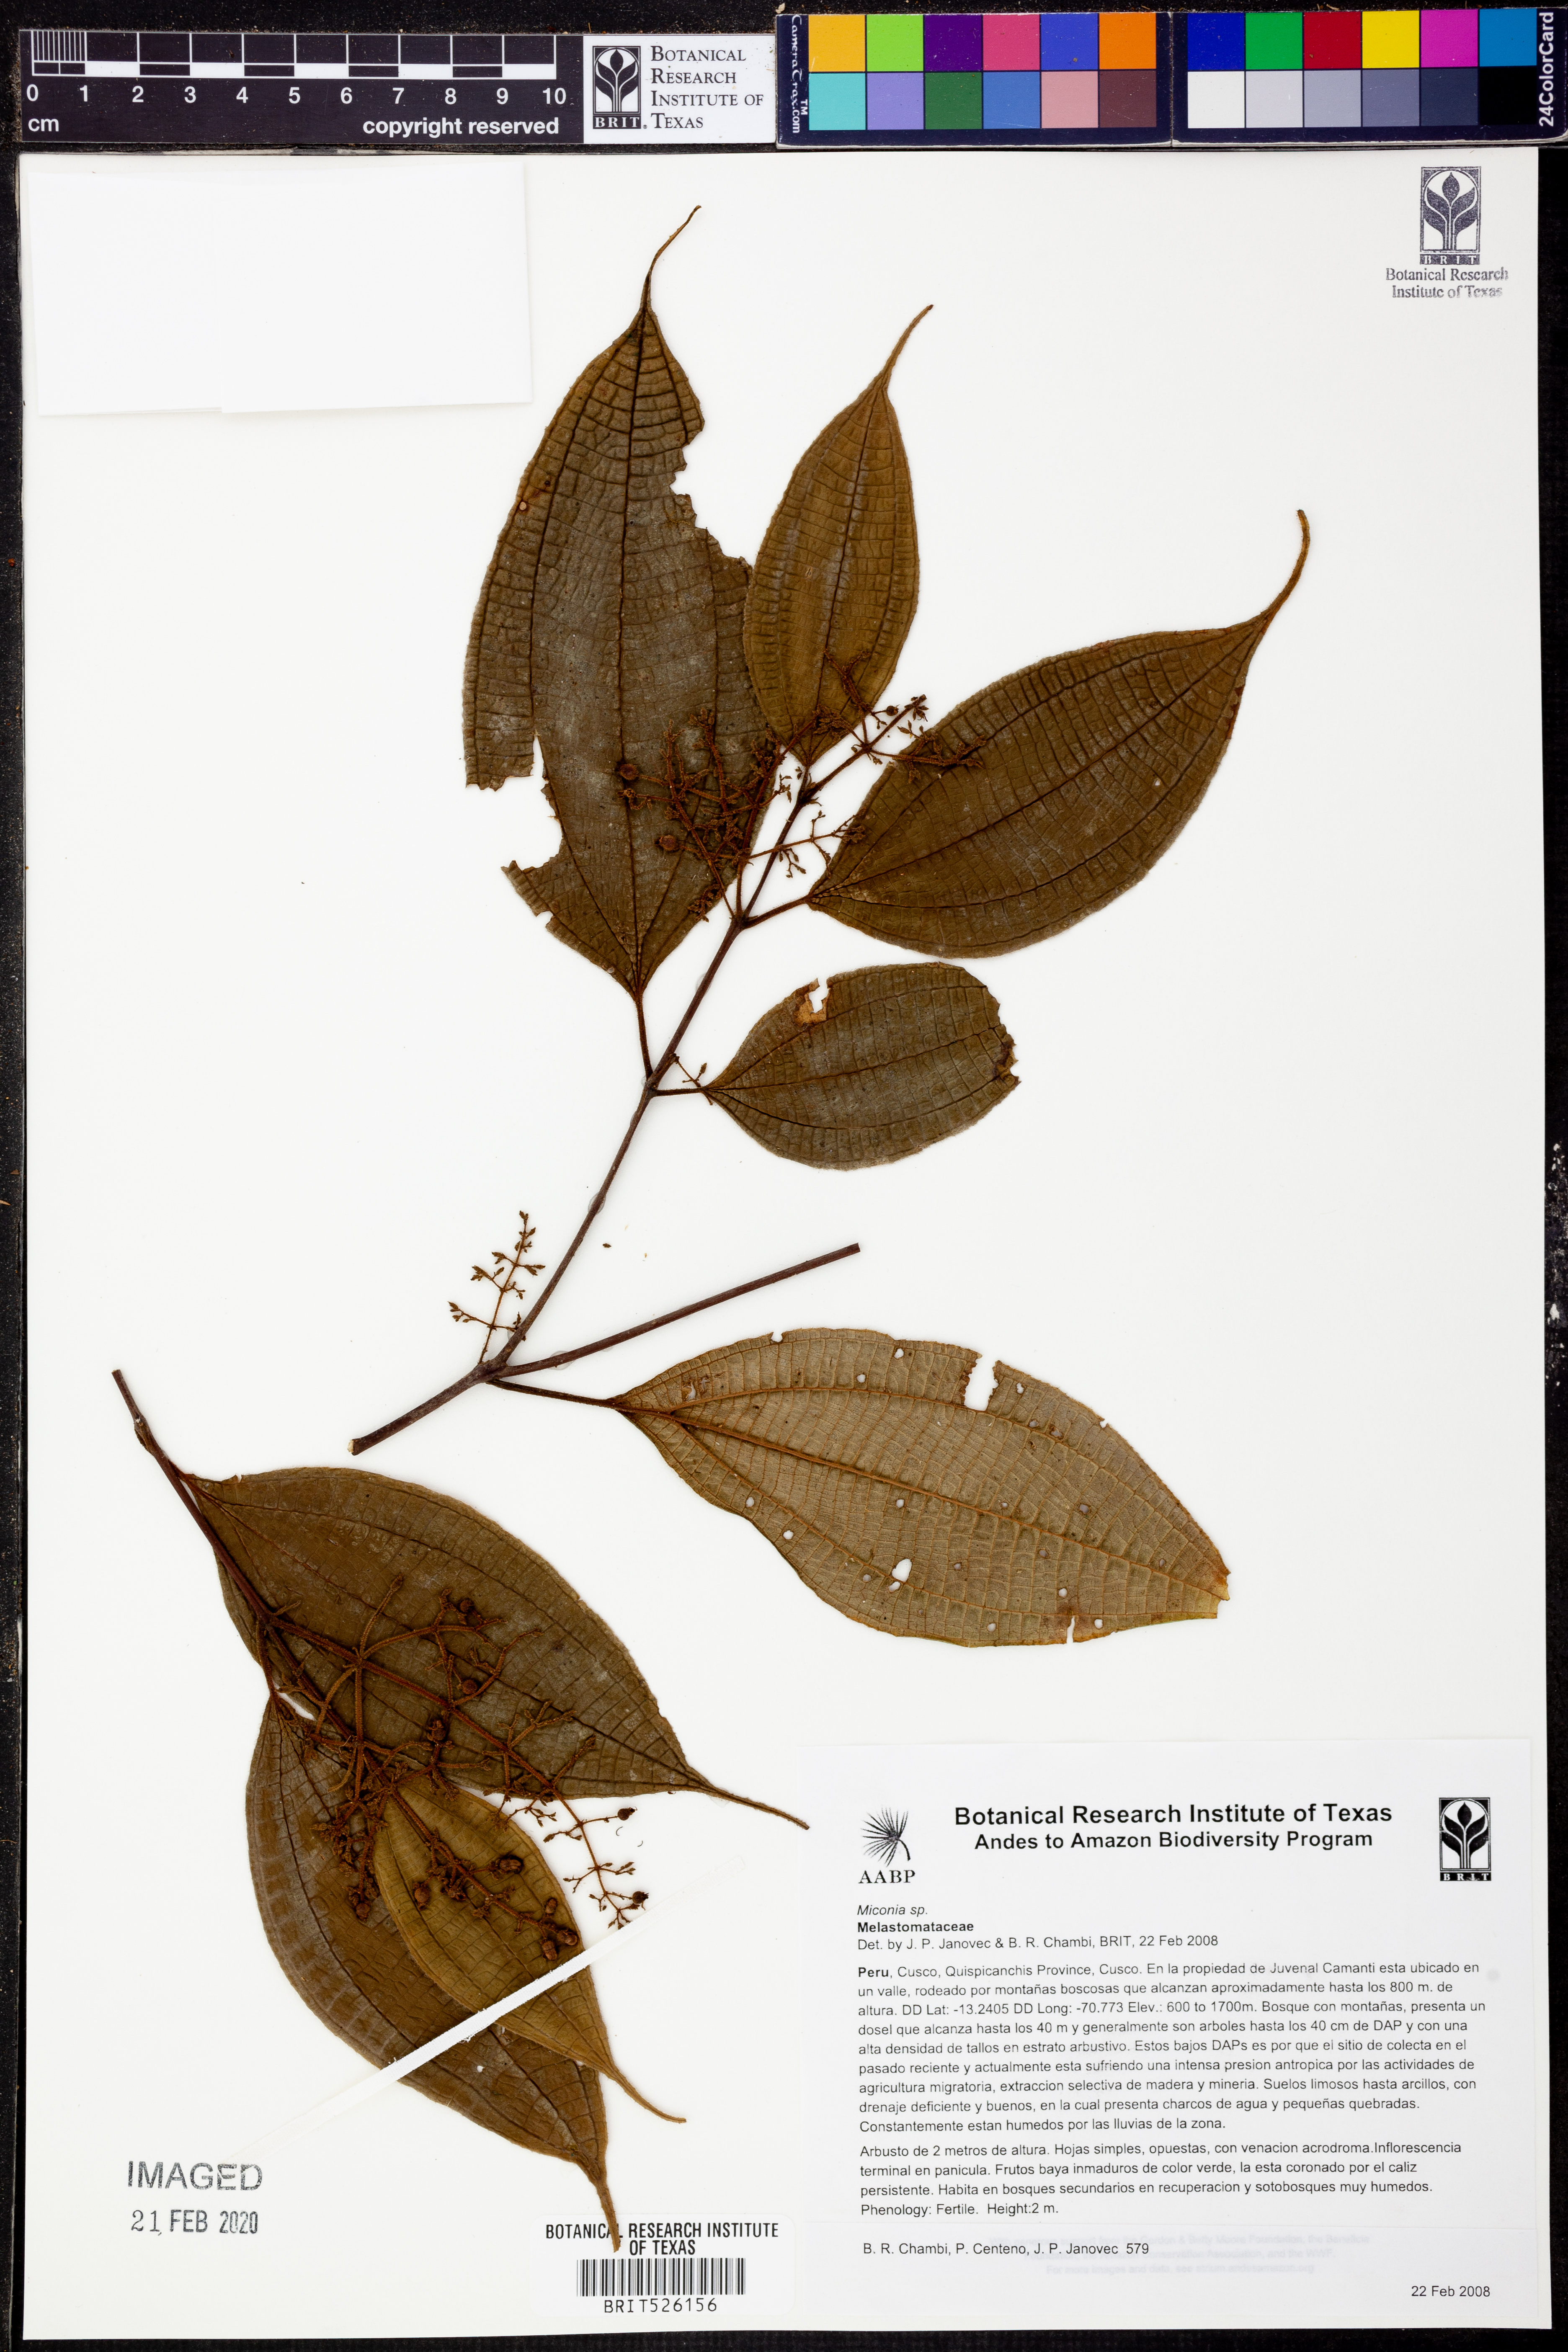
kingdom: Plantae
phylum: Tracheophyta
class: Magnoliopsida
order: Myrtales
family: Melastomataceae
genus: Miconia
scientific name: Miconia
